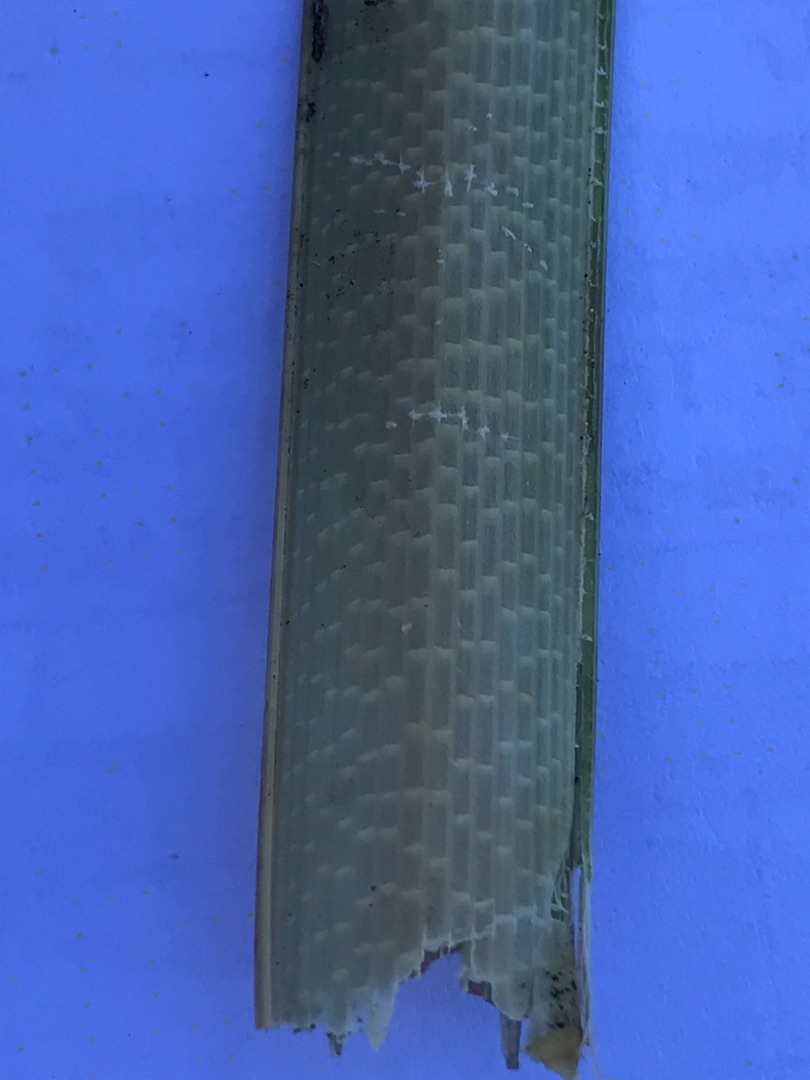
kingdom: Plantae
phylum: Tracheophyta
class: Liliopsida
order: Poales
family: Cyperaceae
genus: Carex
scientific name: Carex riparia
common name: Tykakset star
